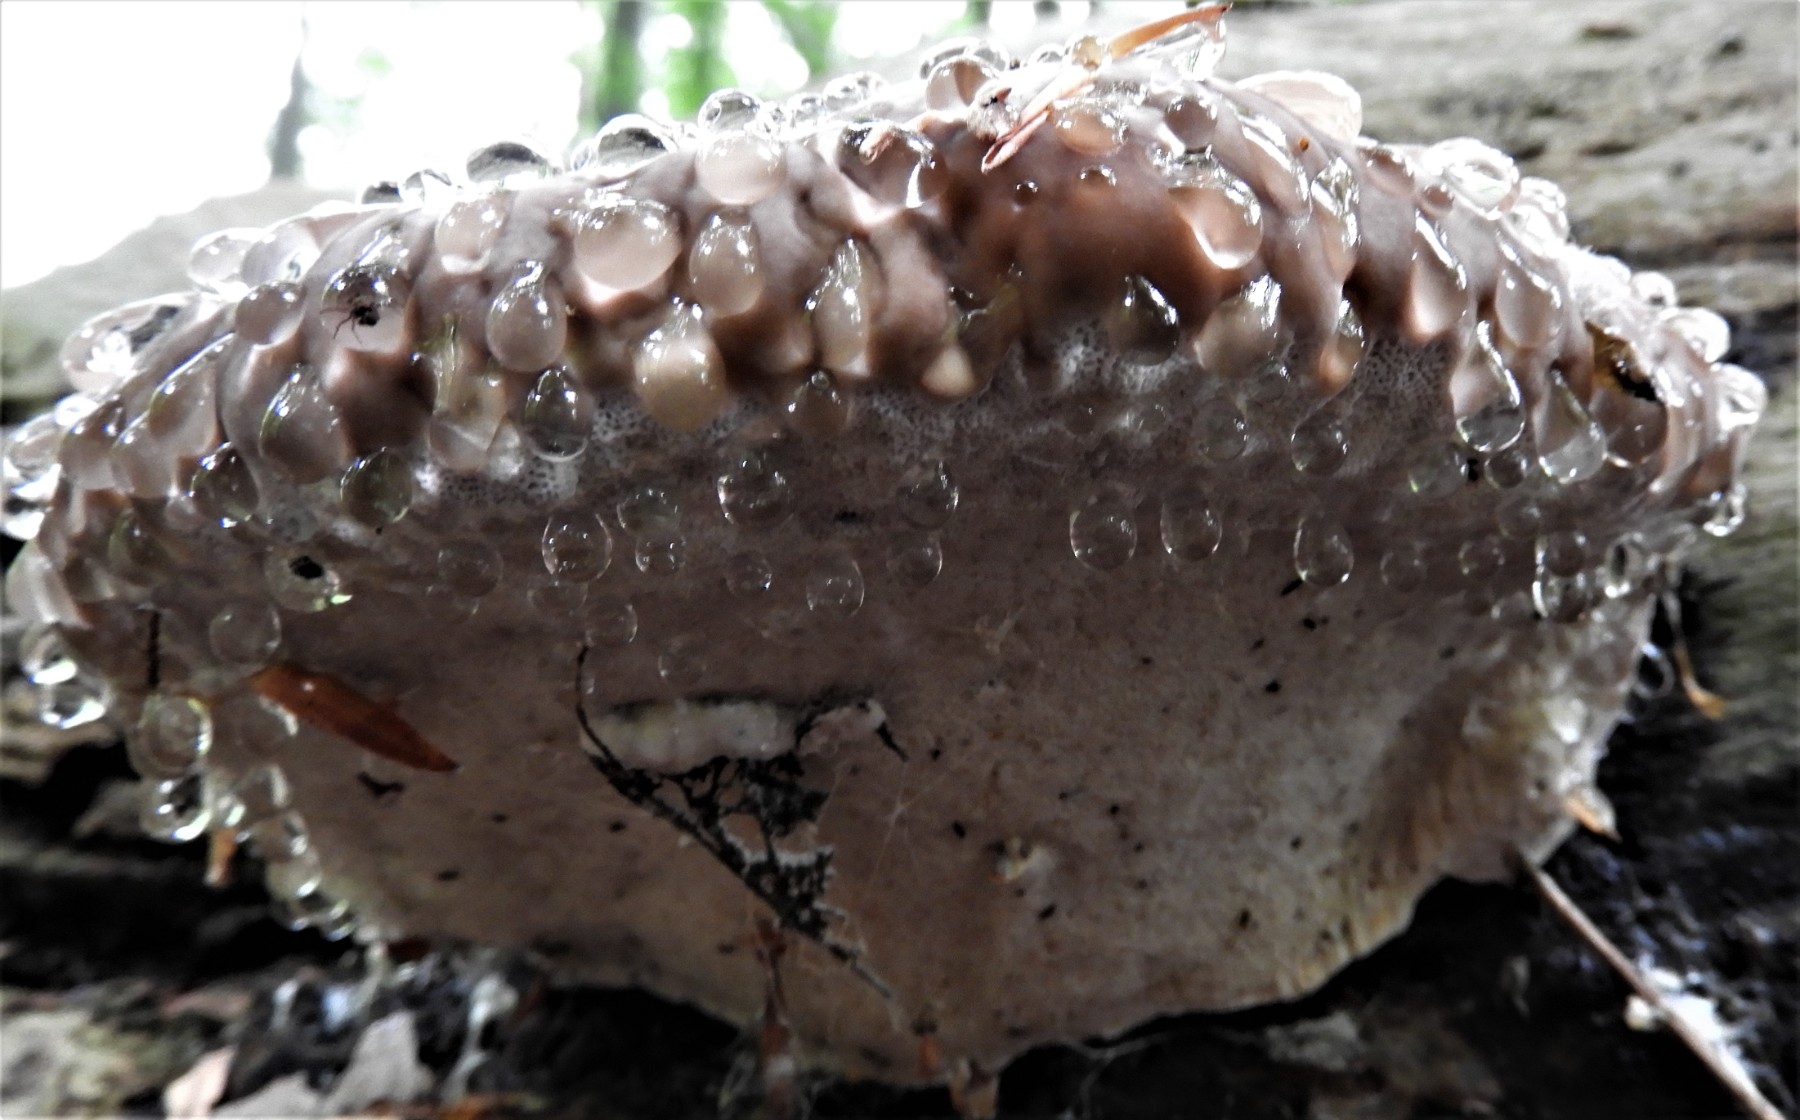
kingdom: Fungi
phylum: Basidiomycota
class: Agaricomycetes
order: Polyporales
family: Fomitopsidaceae
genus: Fomitopsis
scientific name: Fomitopsis pinicola
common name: randbæltet hovporesvamp
